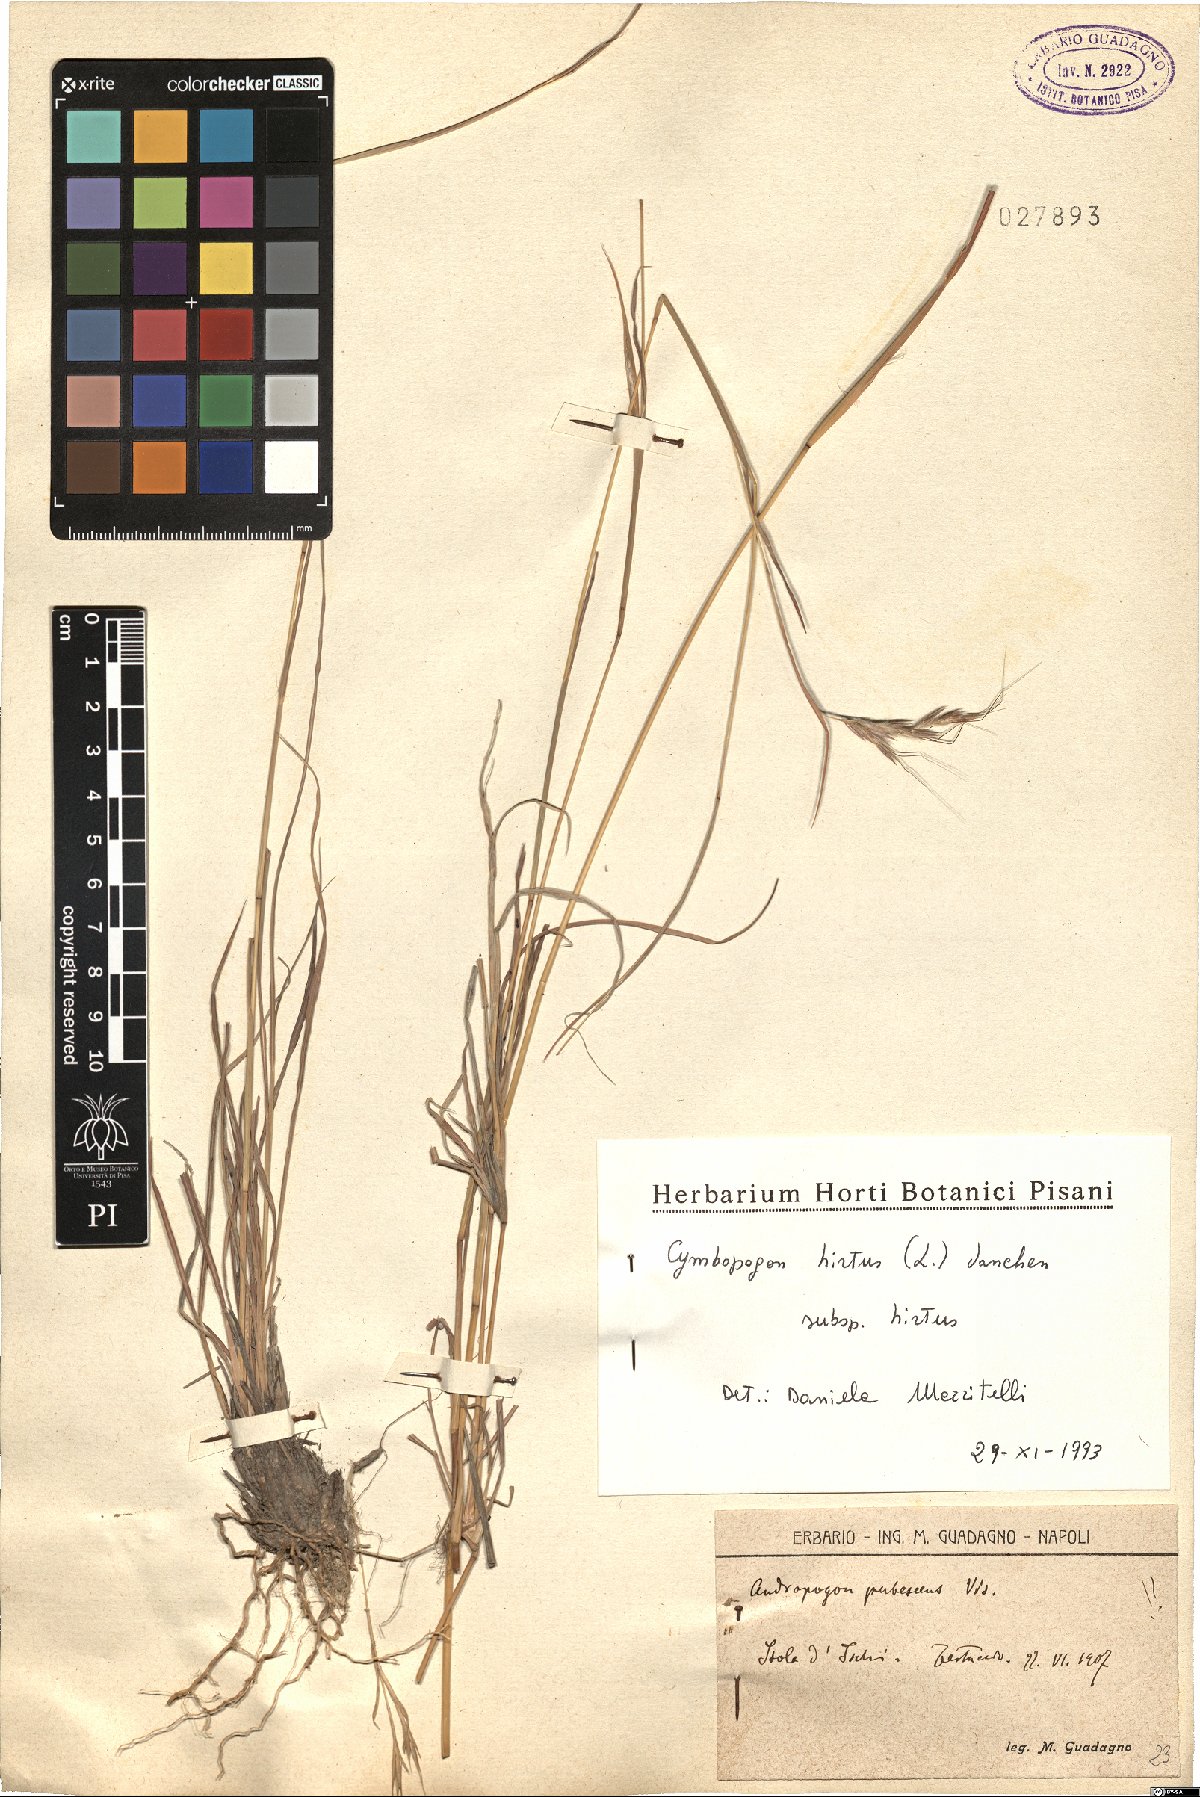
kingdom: Plantae
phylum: Tracheophyta
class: Liliopsida
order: Poales
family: Poaceae
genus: Cymbopogon
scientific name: Cymbopogon hirtus
